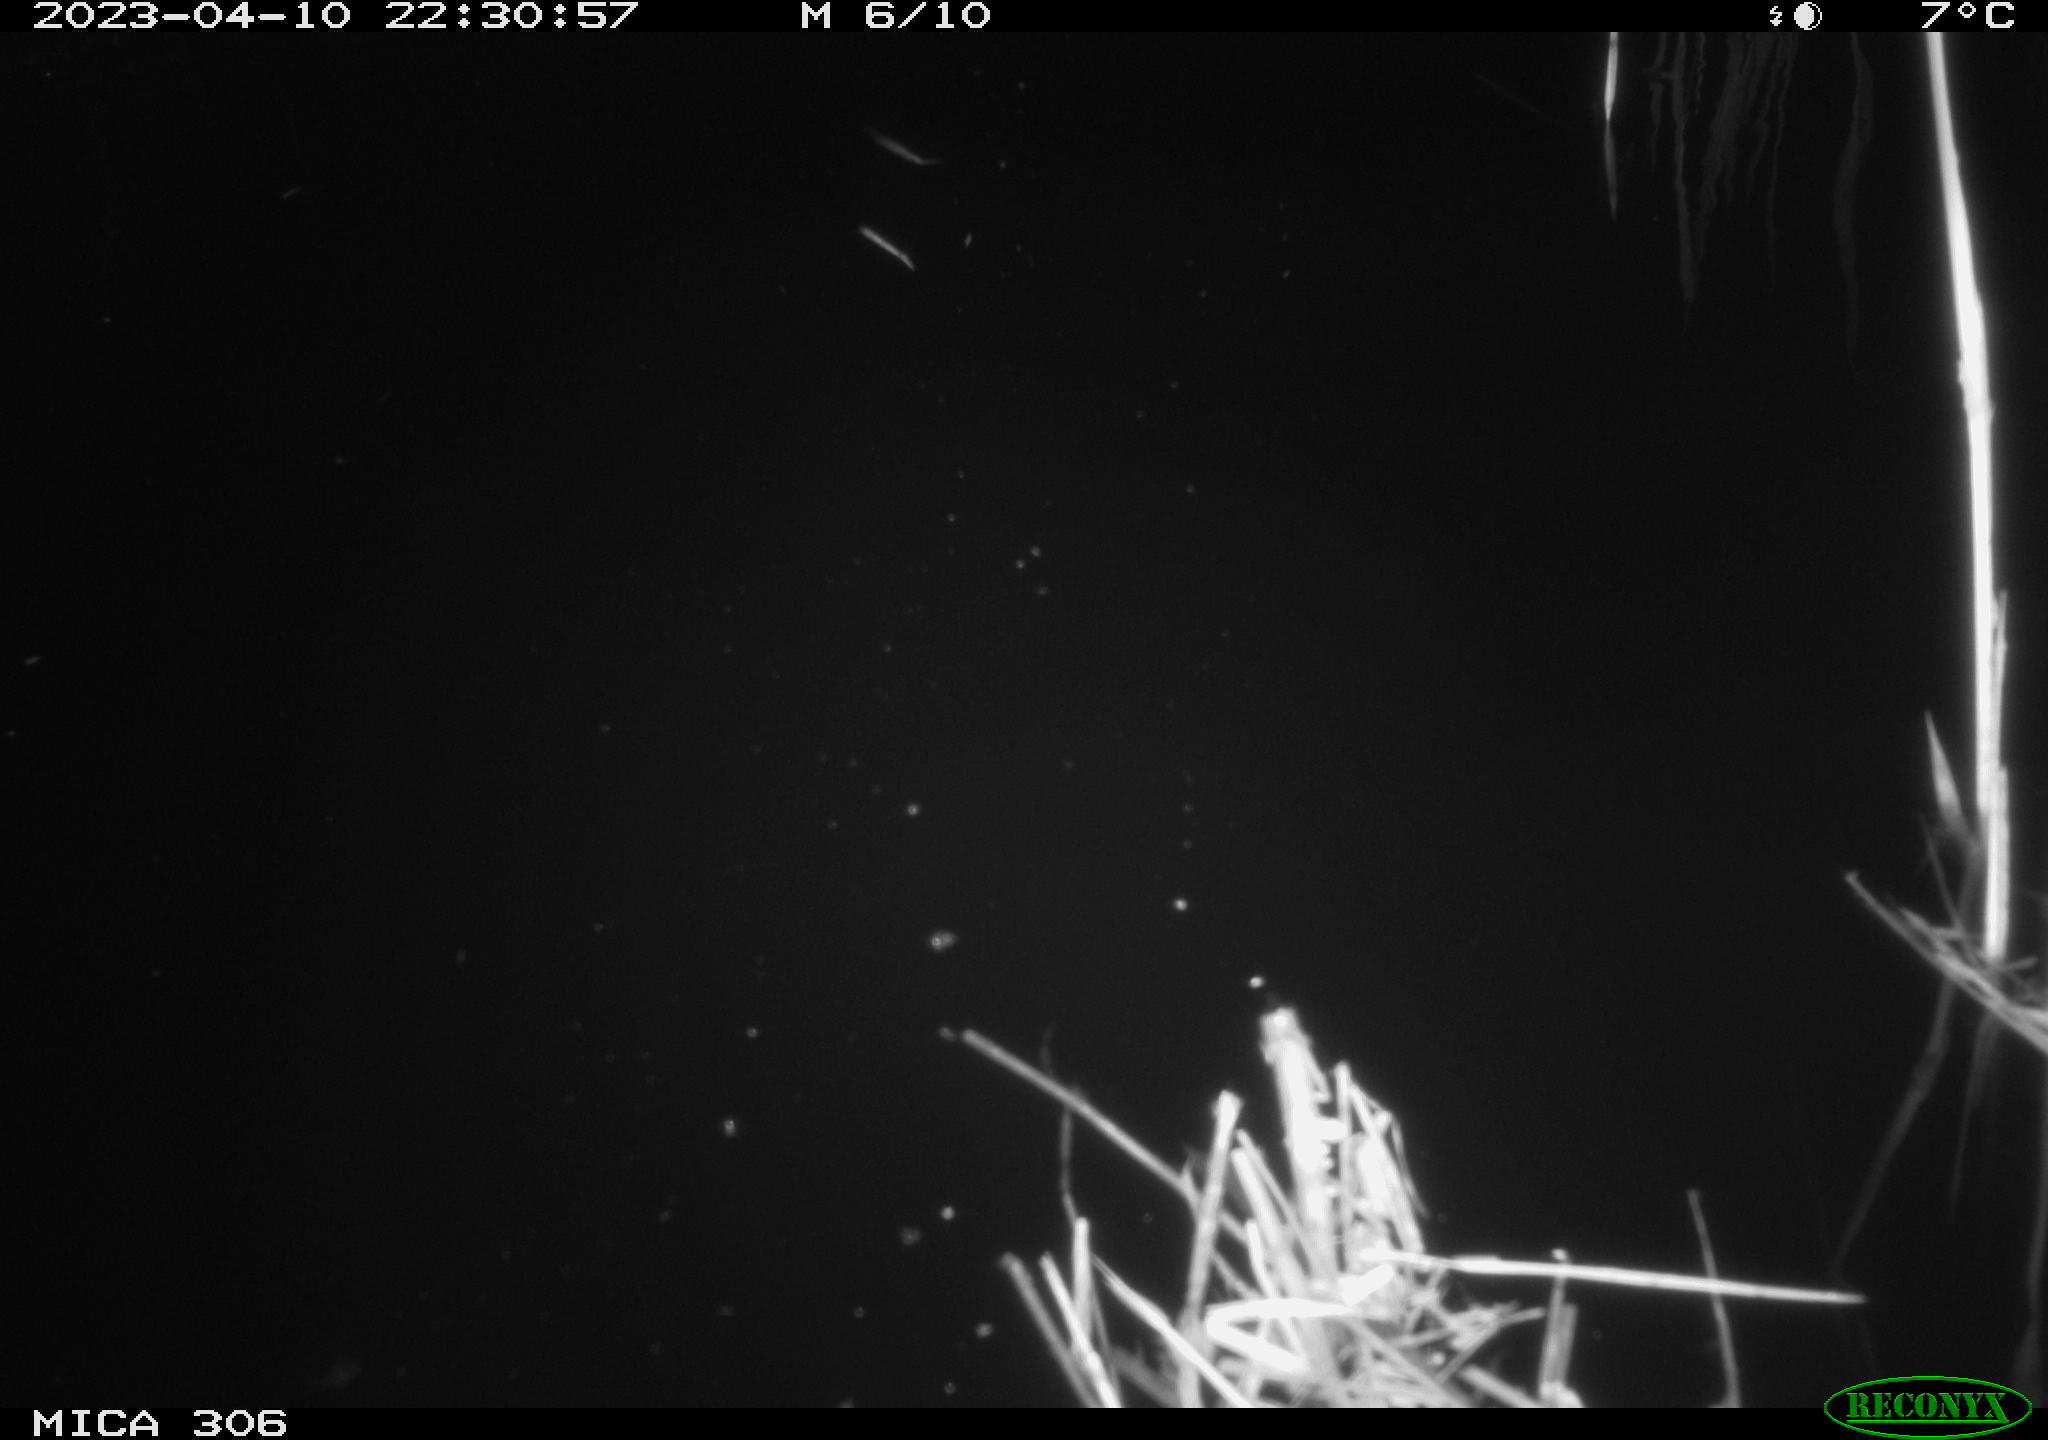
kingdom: Animalia
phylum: Chordata
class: Aves
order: Anseriformes
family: Anatidae
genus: Anas
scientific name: Anas
